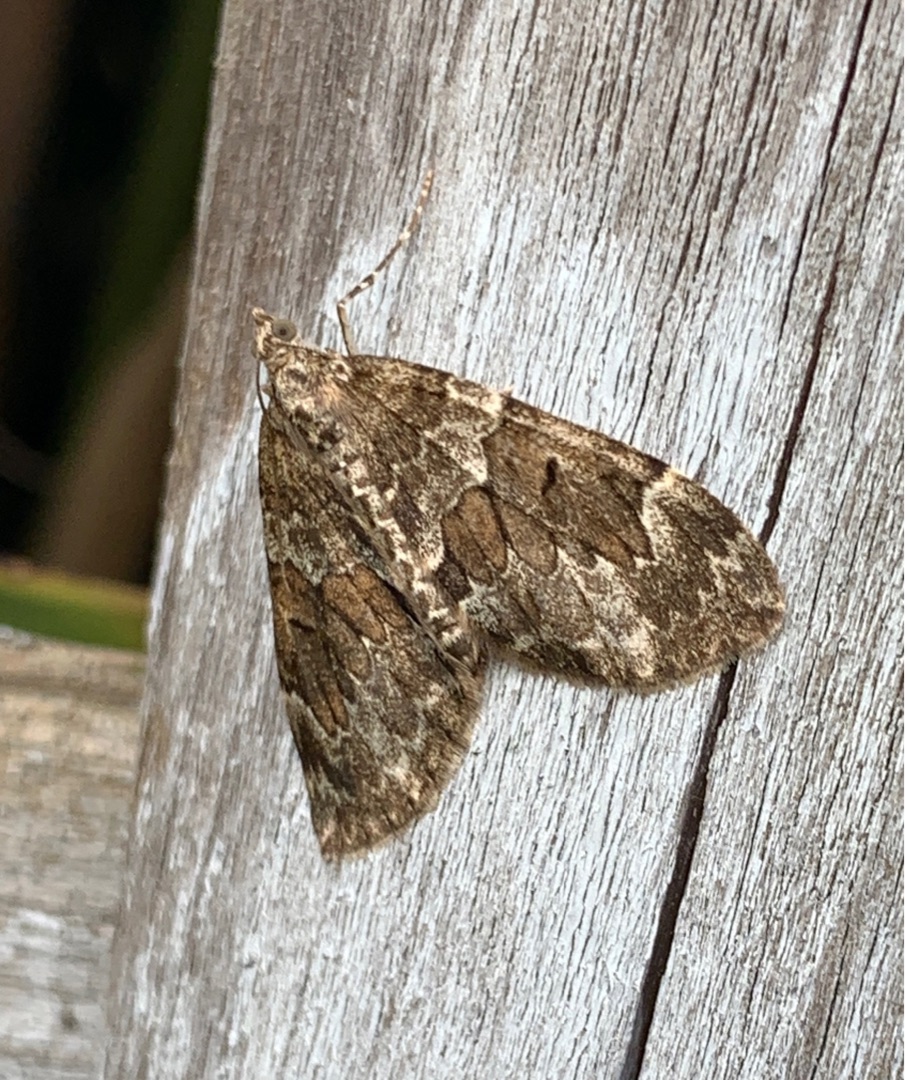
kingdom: Animalia
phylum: Arthropoda
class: Insecta
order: Lepidoptera
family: Geometridae
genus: Thera
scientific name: Thera britannica
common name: Ædelgranmåler
